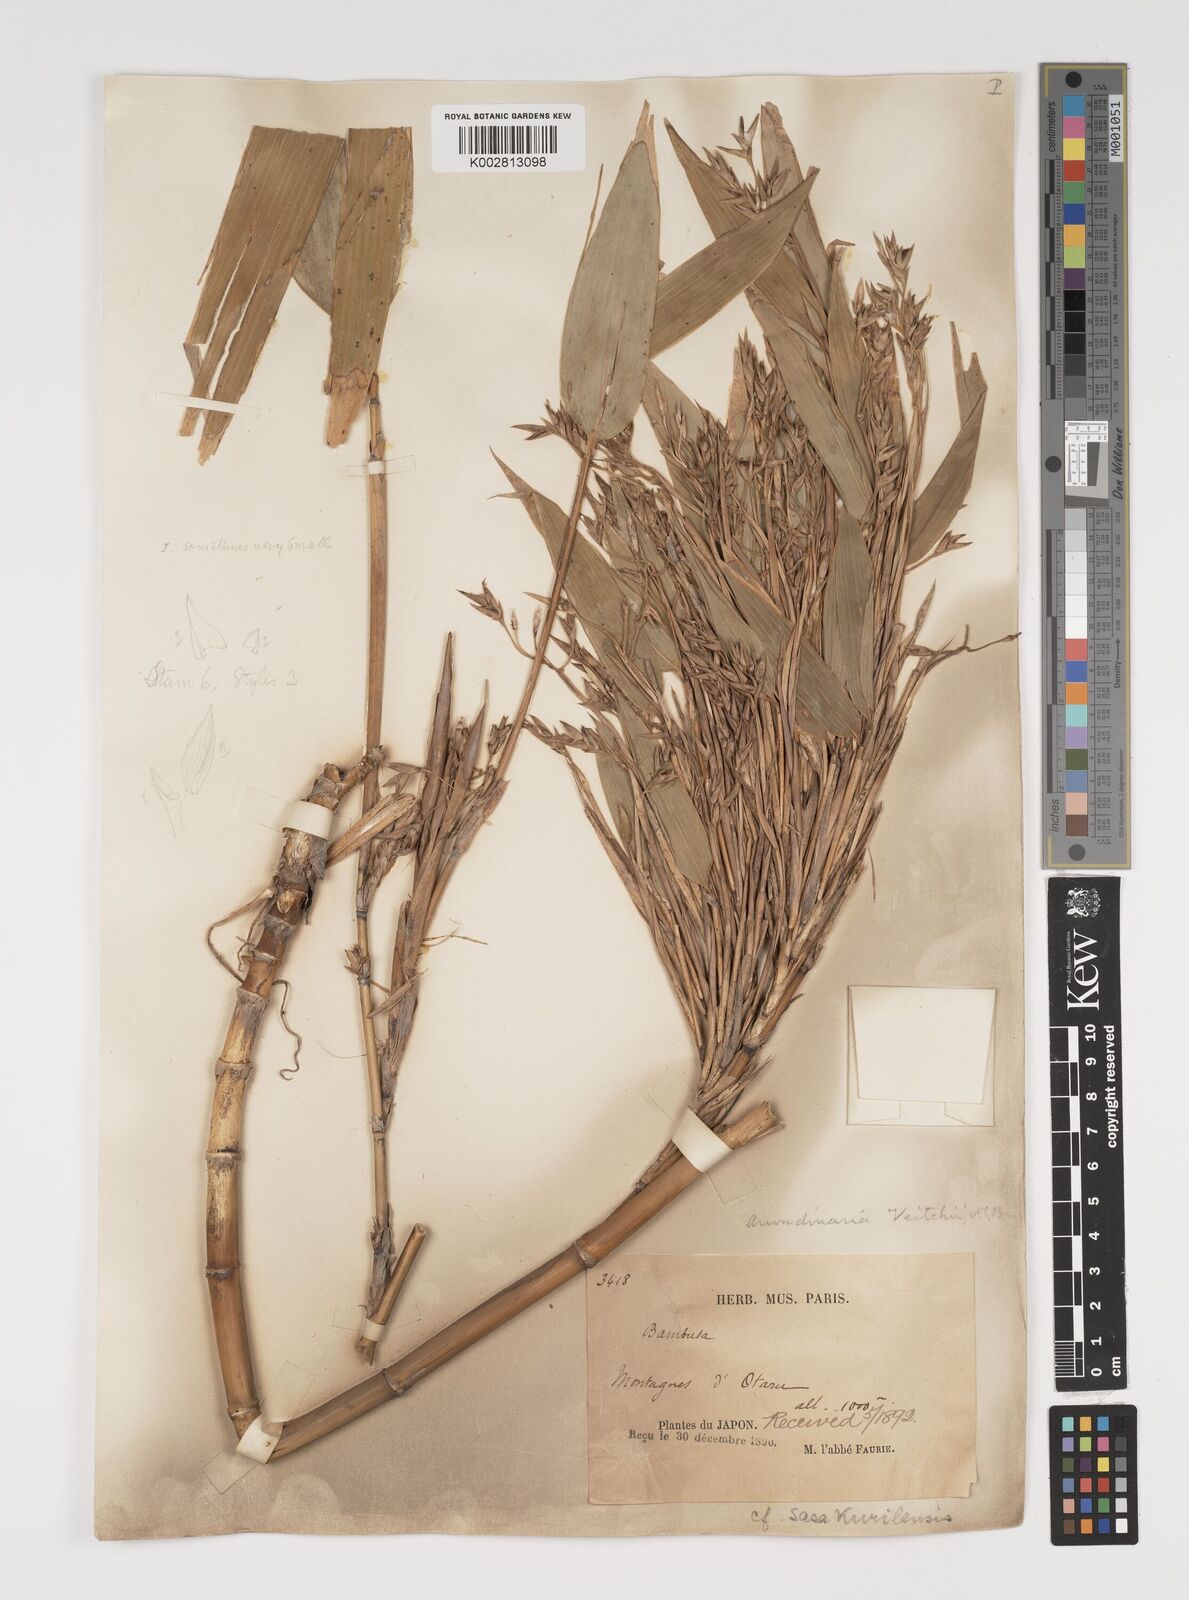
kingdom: Plantae
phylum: Tracheophyta
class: Liliopsida
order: Poales
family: Poaceae
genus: Sasa
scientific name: Sasa kurilensis
